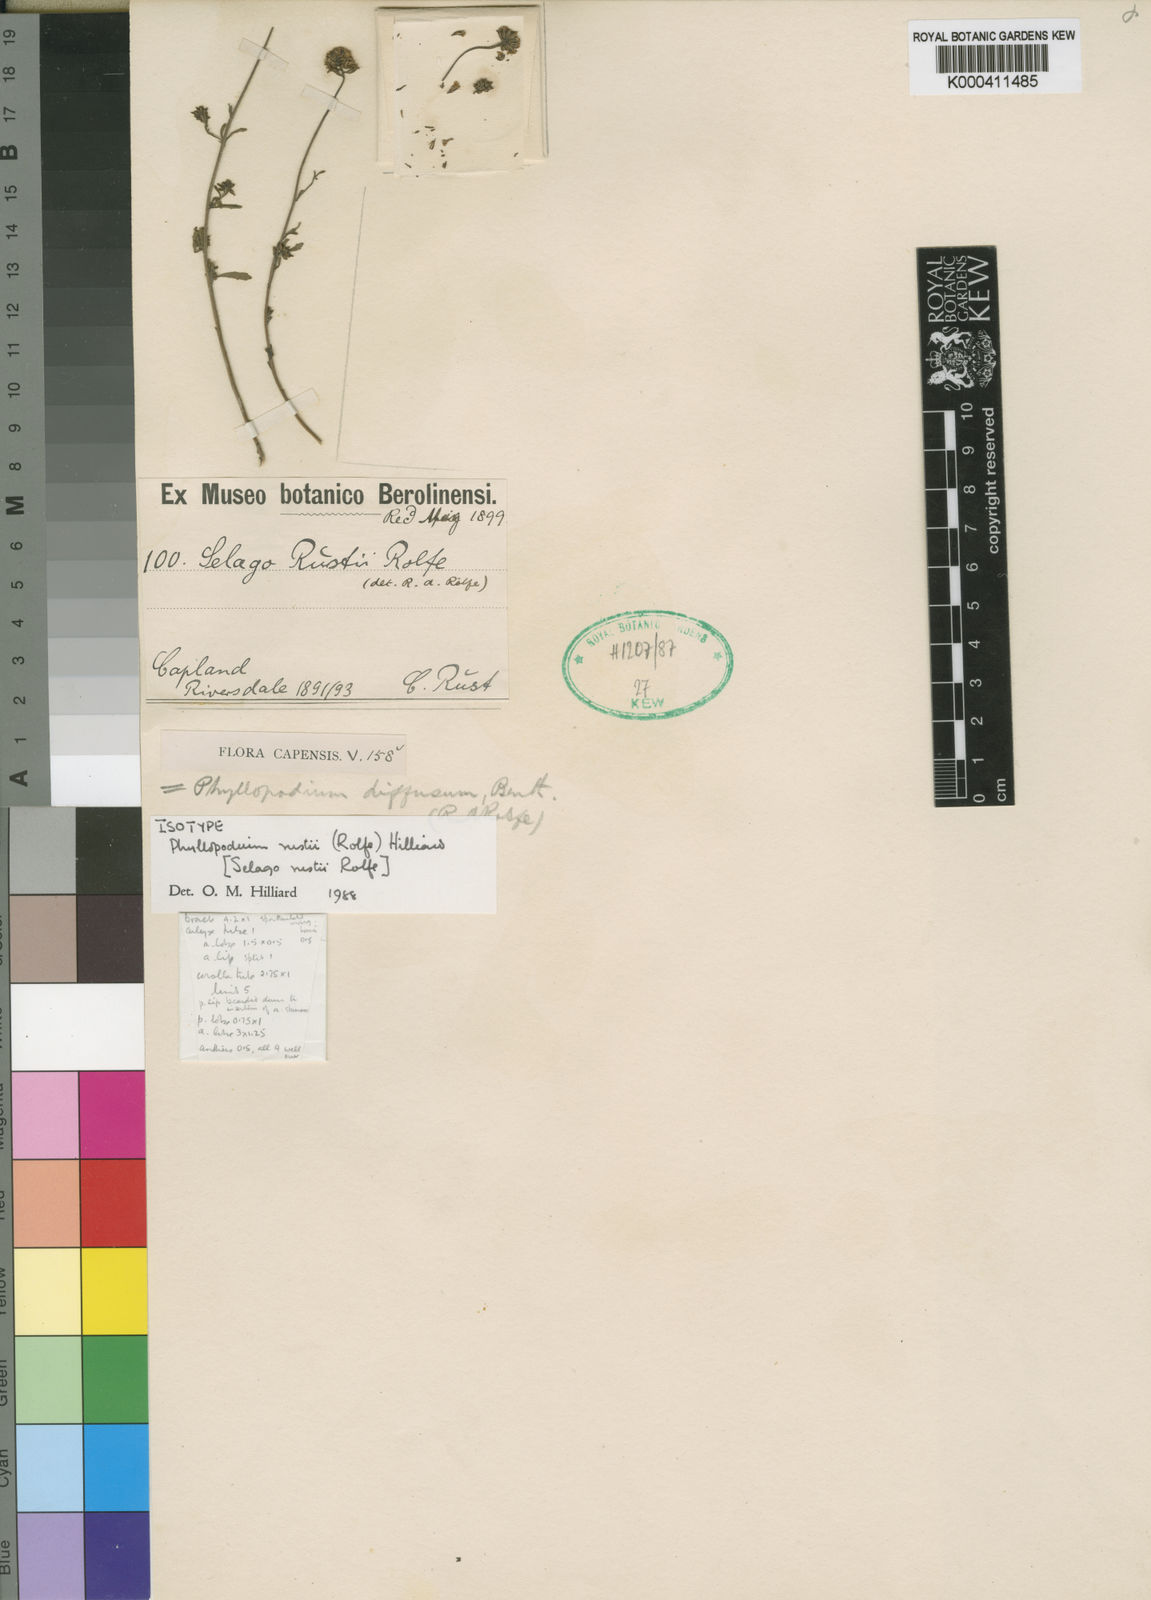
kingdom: Plantae
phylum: Tracheophyta
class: Magnoliopsida
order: Lamiales
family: Scrophulariaceae
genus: Phyllopodium
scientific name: Phyllopodium rustii
